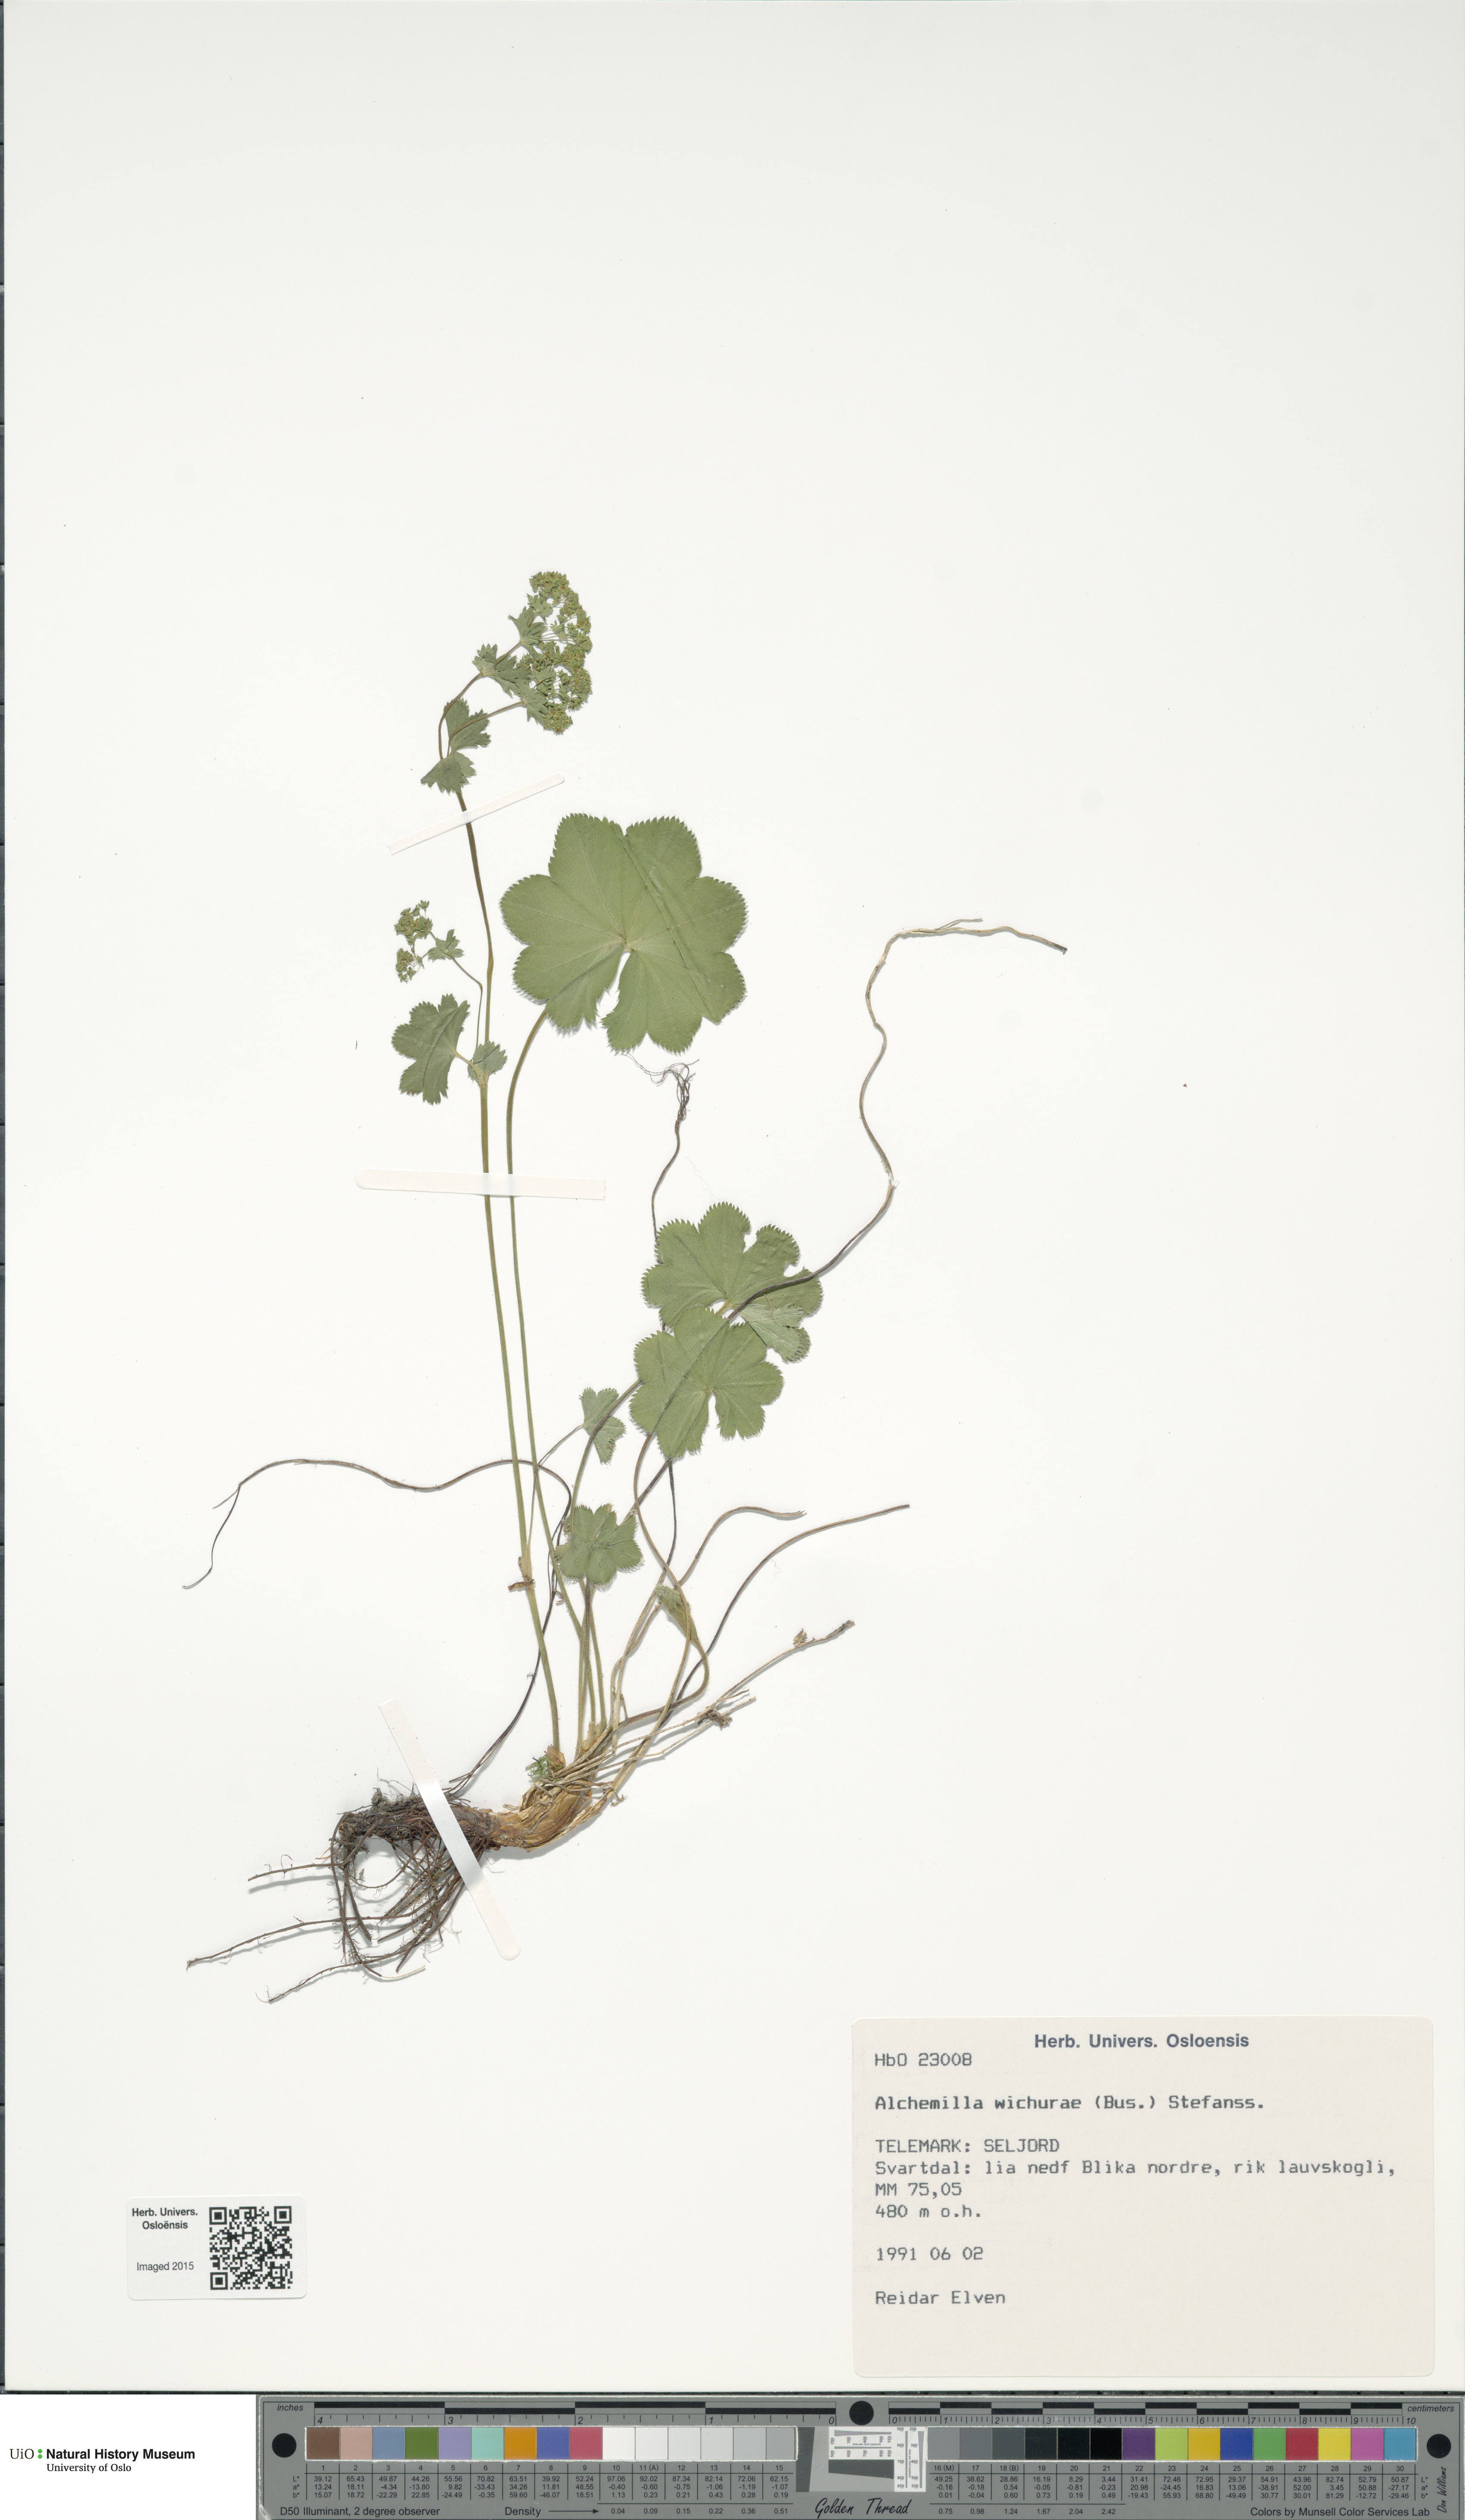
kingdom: Plantae
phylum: Tracheophyta
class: Magnoliopsida
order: Rosales
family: Rosaceae
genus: Alchemilla
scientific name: Alchemilla wichurae
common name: Rock lady's mantle
